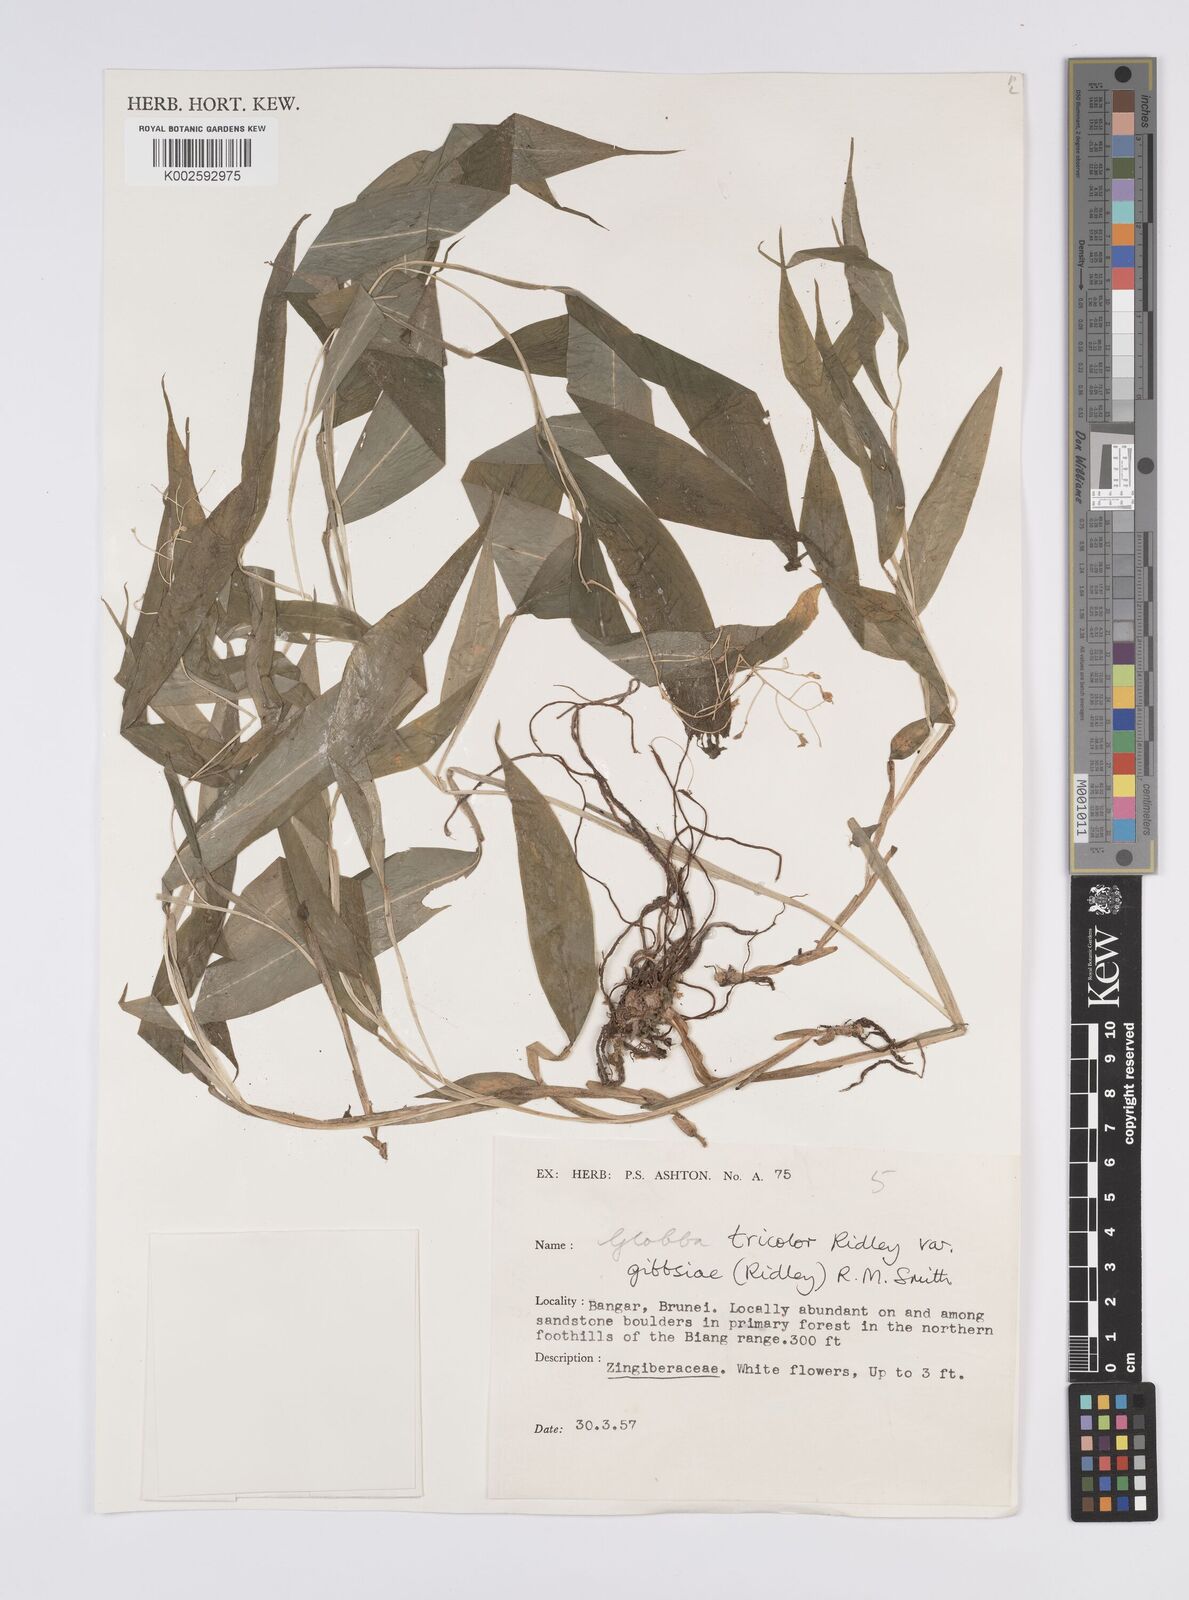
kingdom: Plantae
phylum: Tracheophyta
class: Liliopsida
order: Zingiberales
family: Zingiberaceae
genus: Globba
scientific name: Globba tricolor
